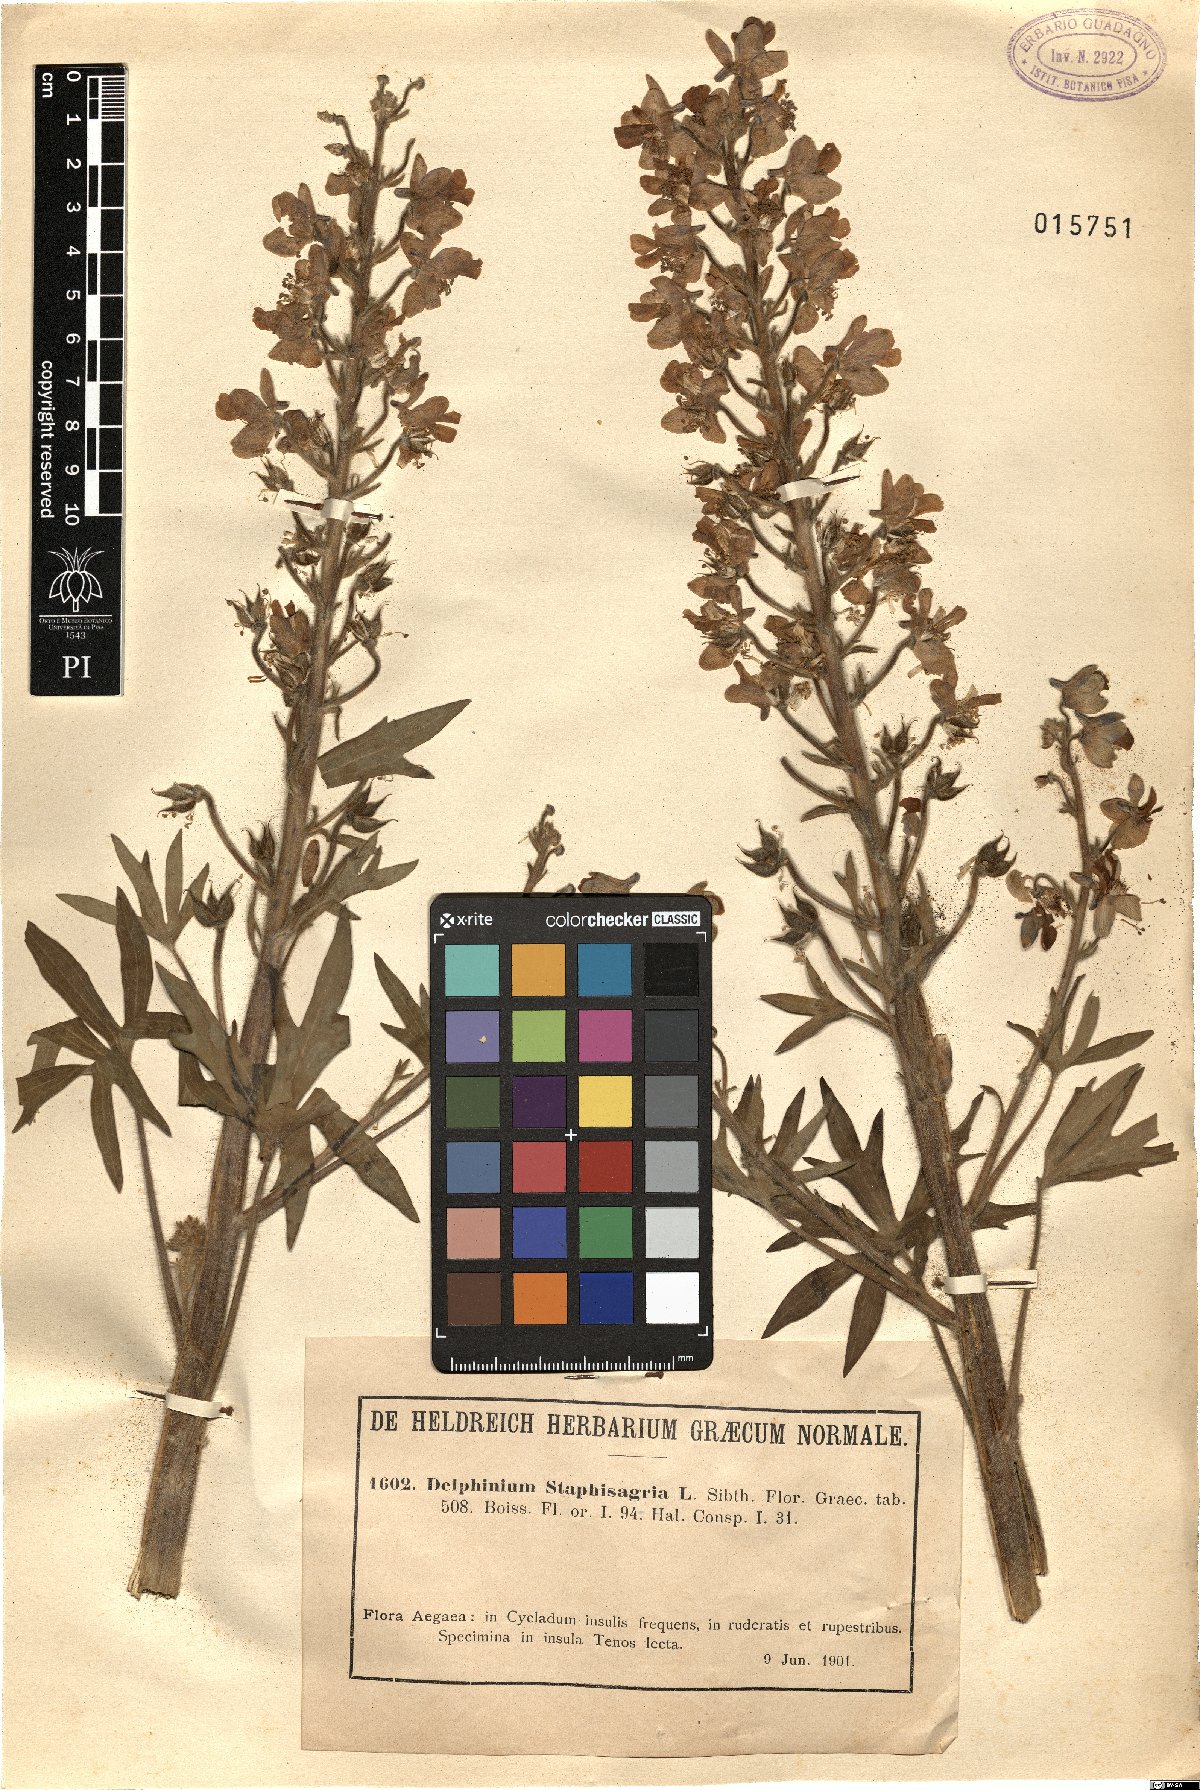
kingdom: Plantae
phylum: Tracheophyta
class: Magnoliopsida
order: Ranunculales
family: Ranunculaceae
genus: Staphisagria
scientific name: Staphisagria macrosperma
